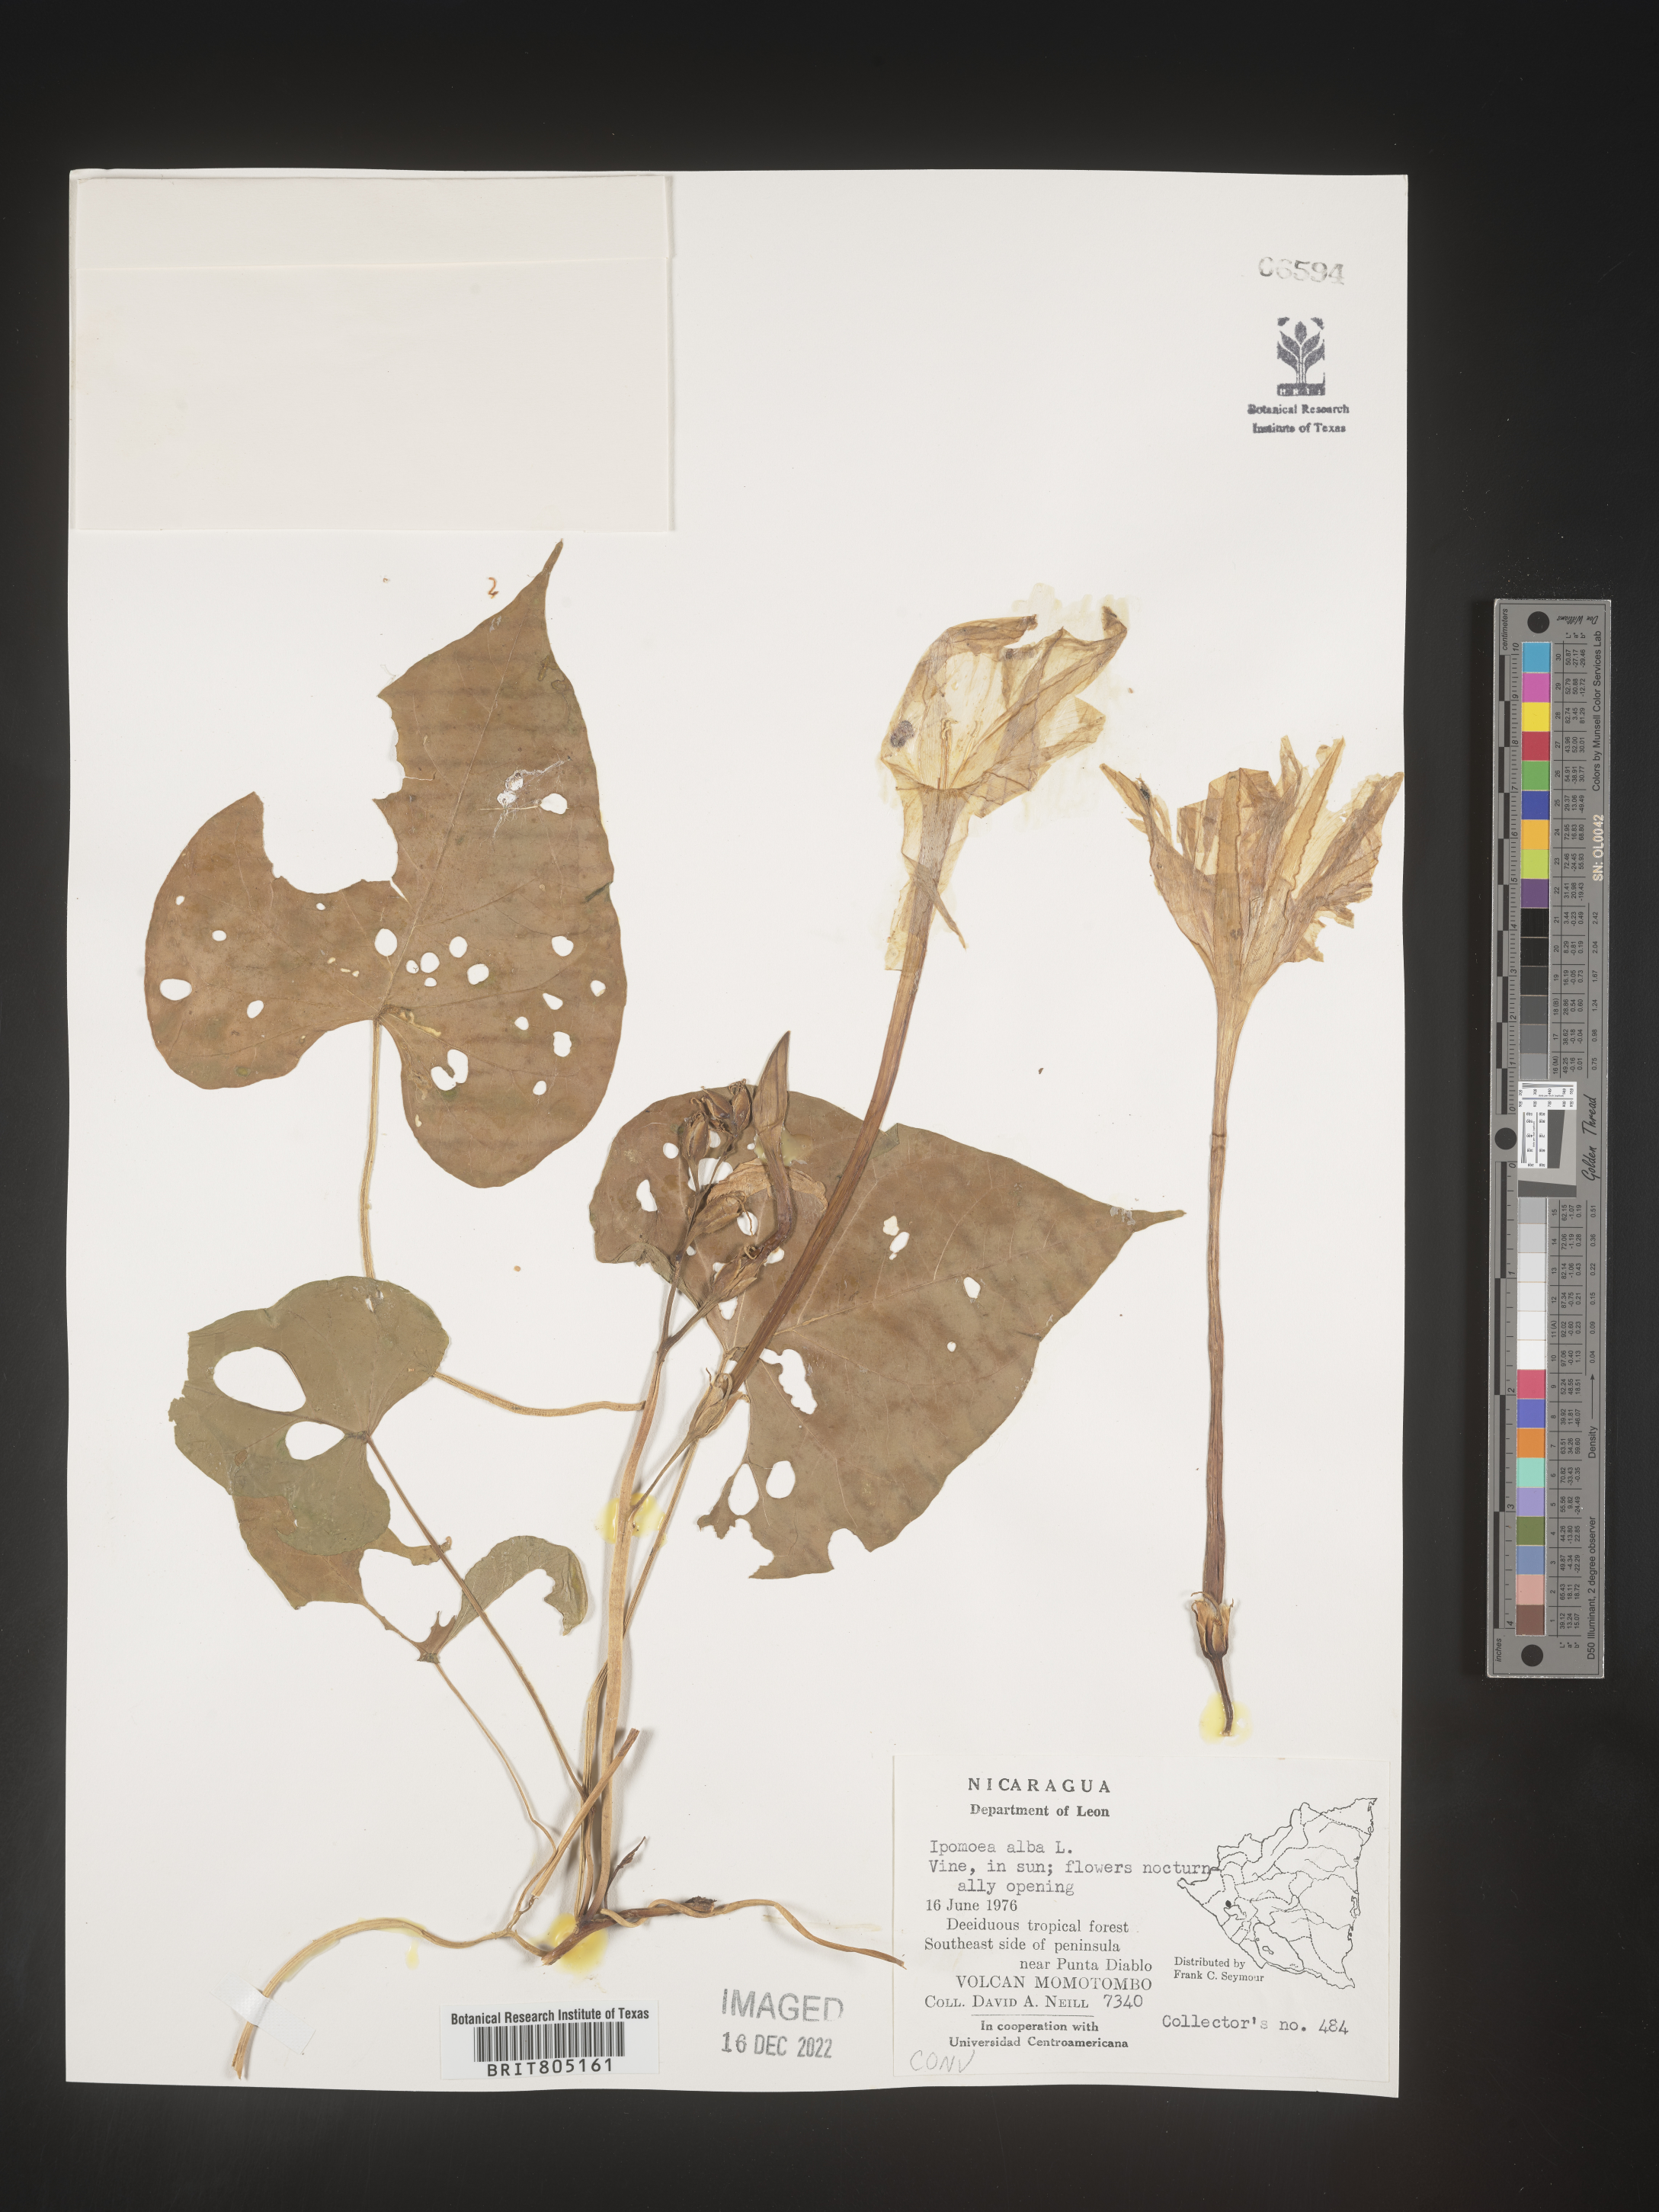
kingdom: Plantae
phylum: Tracheophyta
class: Magnoliopsida
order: Solanales
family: Convolvulaceae
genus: Ipomoea
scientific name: Ipomoea
